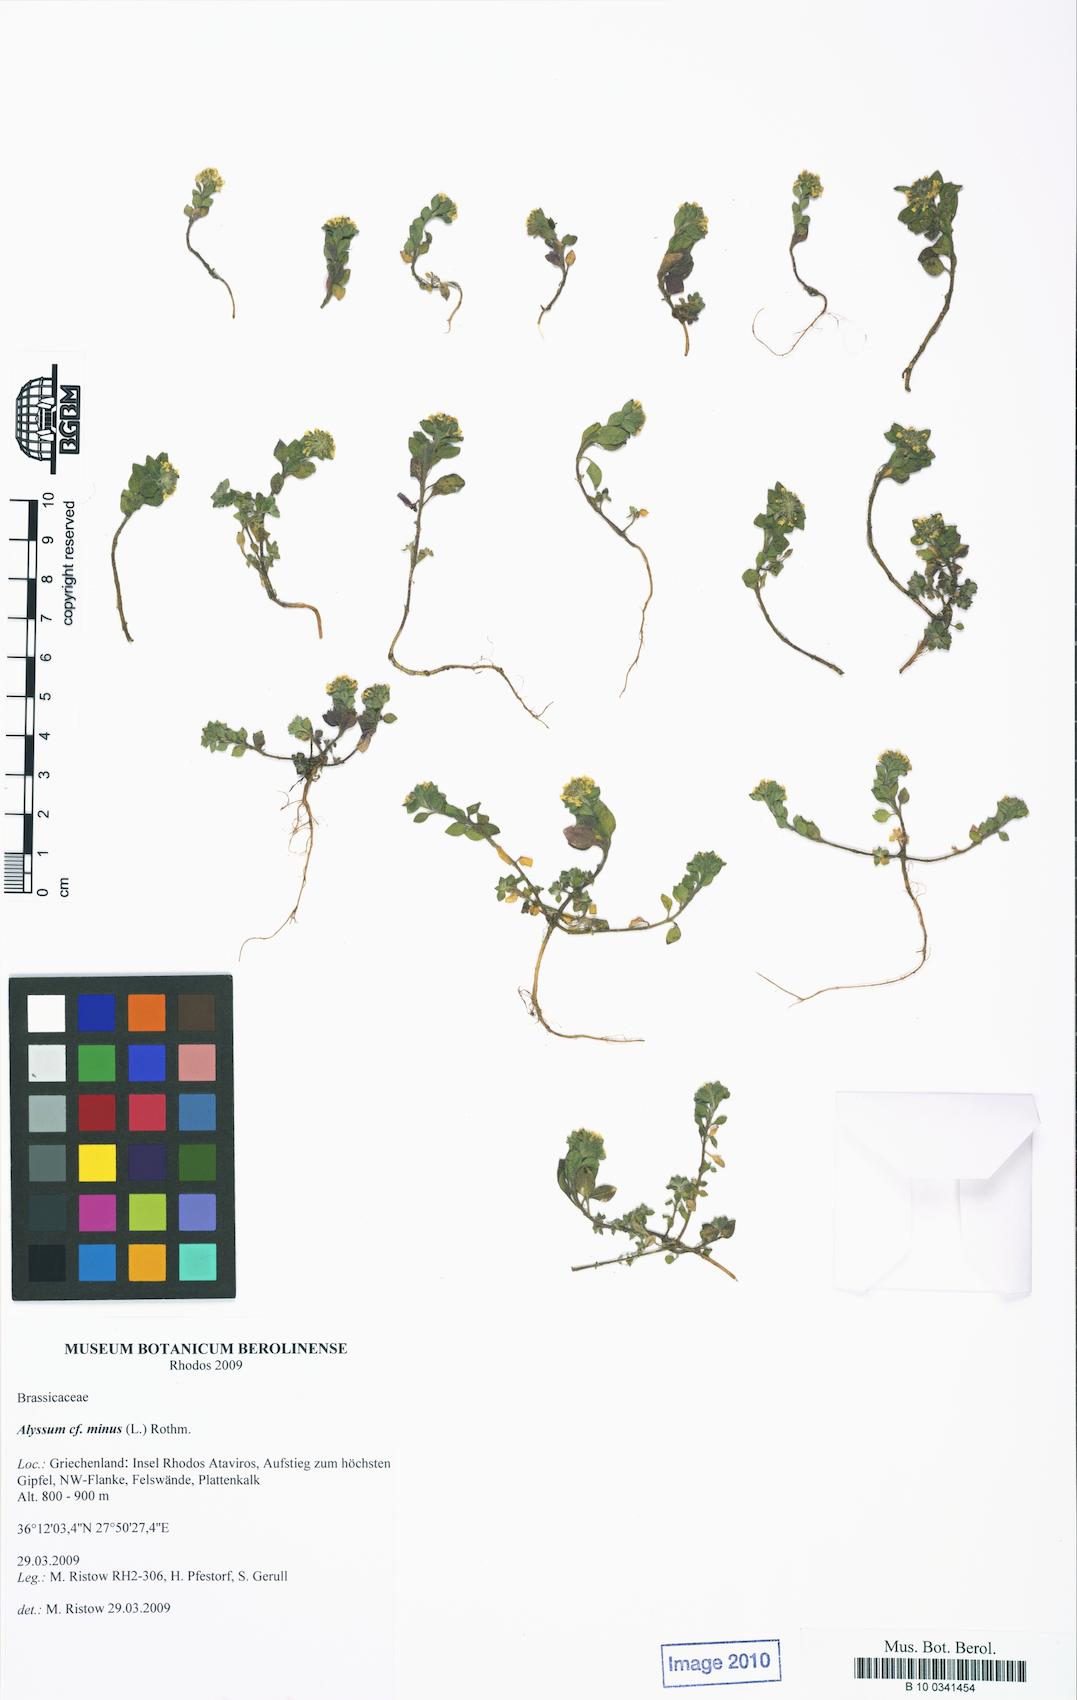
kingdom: Plantae
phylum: Tracheophyta
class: Magnoliopsida
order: Brassicales
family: Brassicaceae
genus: Alyssum
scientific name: Alyssum simplex
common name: Alyssum
